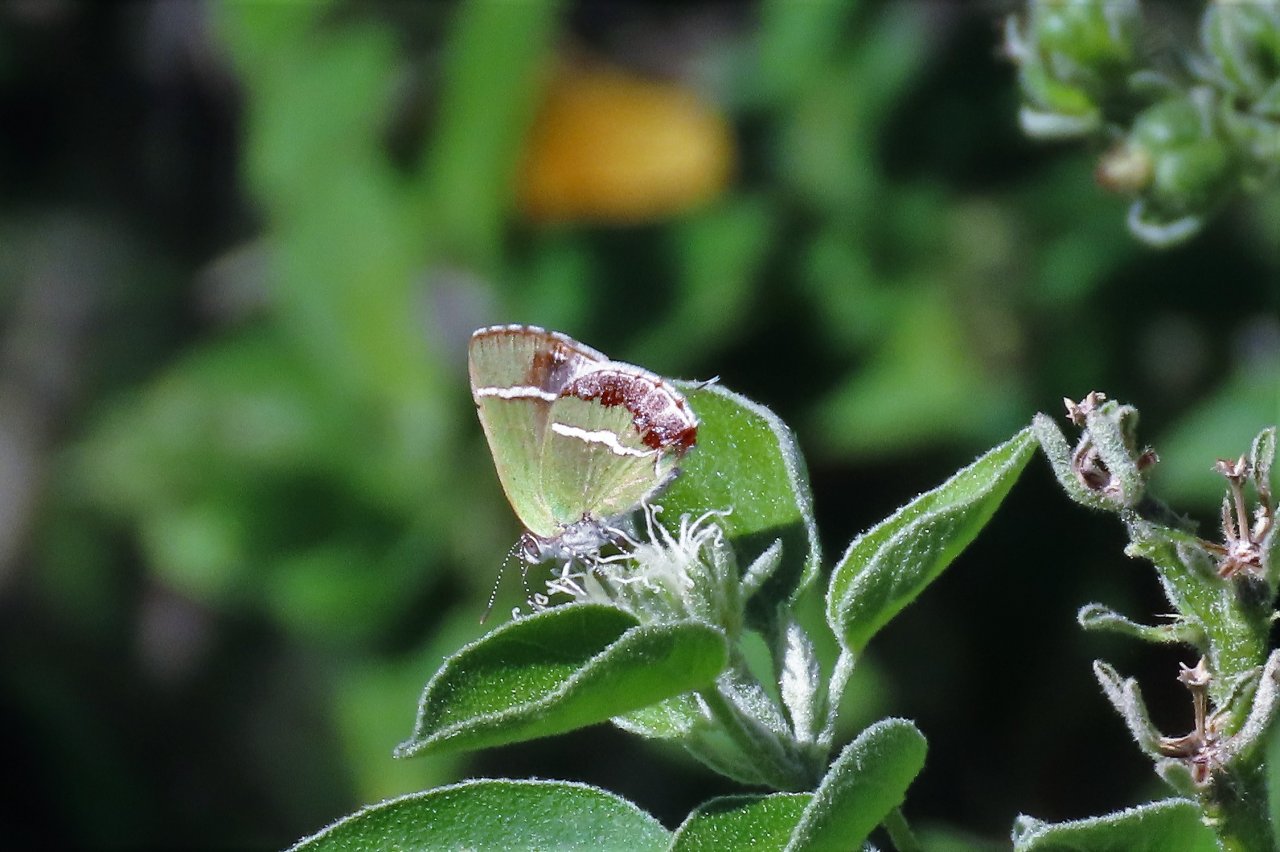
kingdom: Animalia
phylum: Arthropoda
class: Insecta
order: Lepidoptera
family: Lycaenidae
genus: Chlorostrymon
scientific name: Chlorostrymon simaethis
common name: Silver-banded Hairstreak
